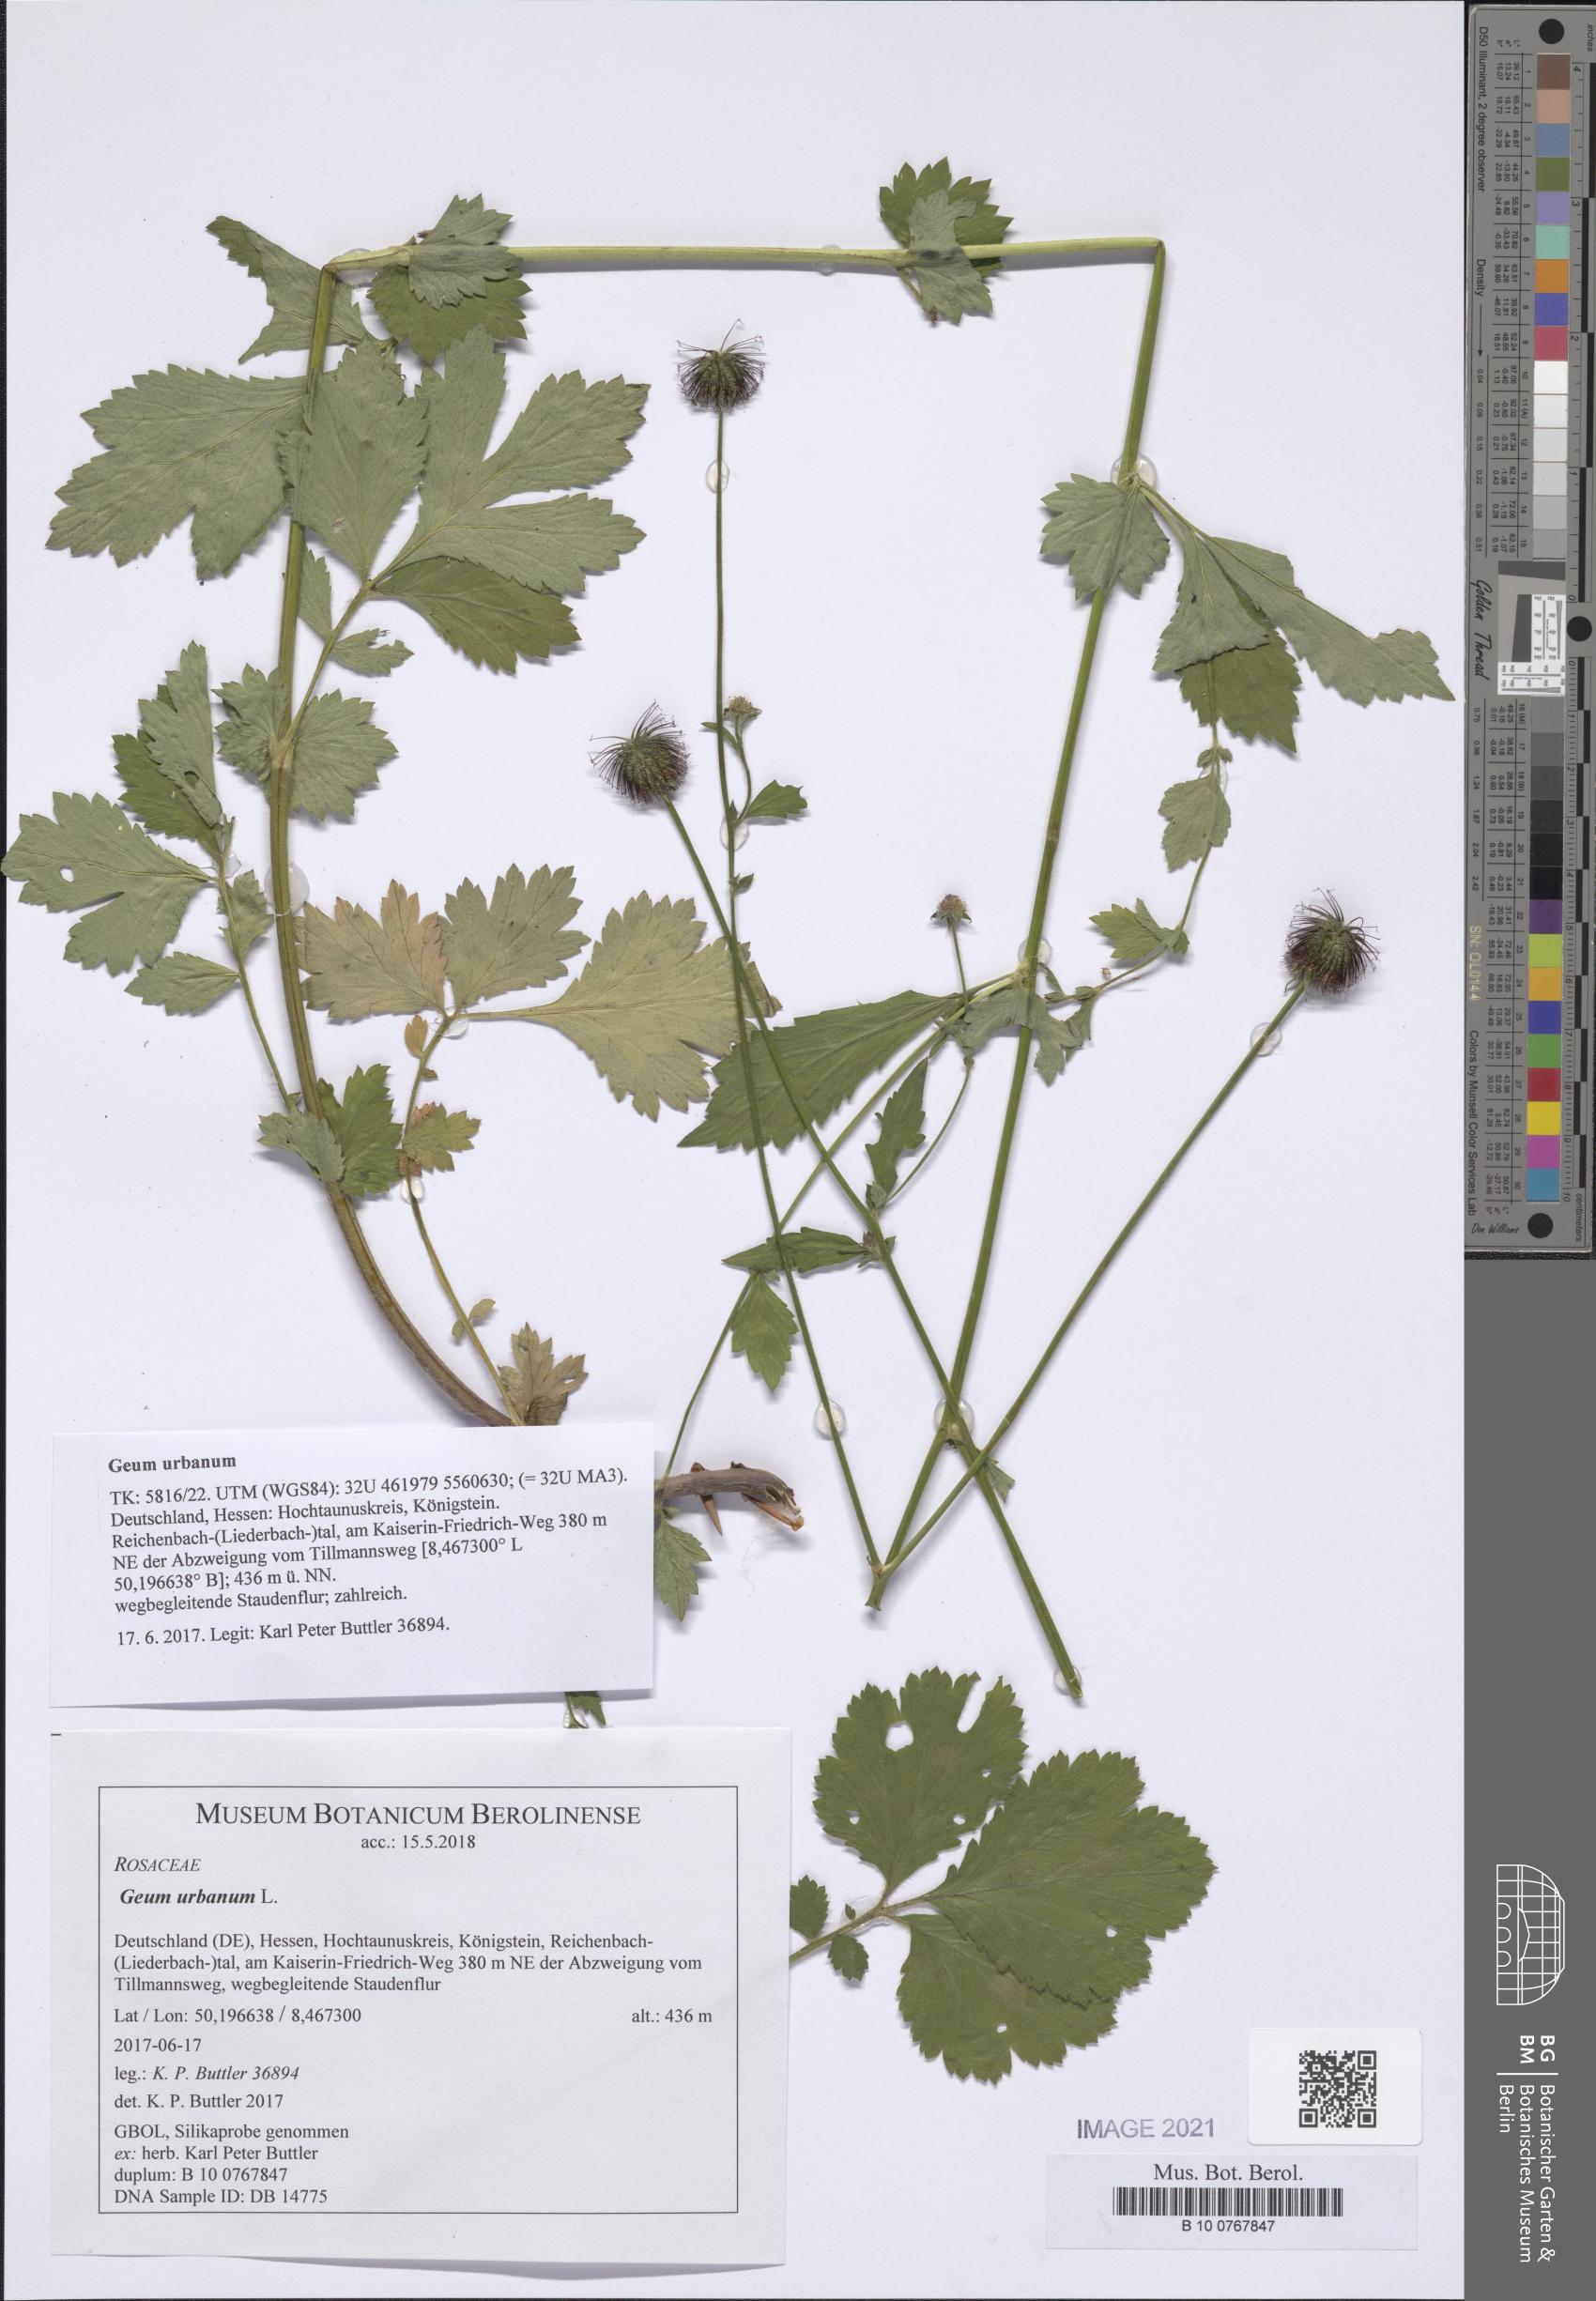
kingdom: Plantae
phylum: Tracheophyta
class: Magnoliopsida
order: Rosales
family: Rosaceae
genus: Geum
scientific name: Geum urbanum
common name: Wood avens
